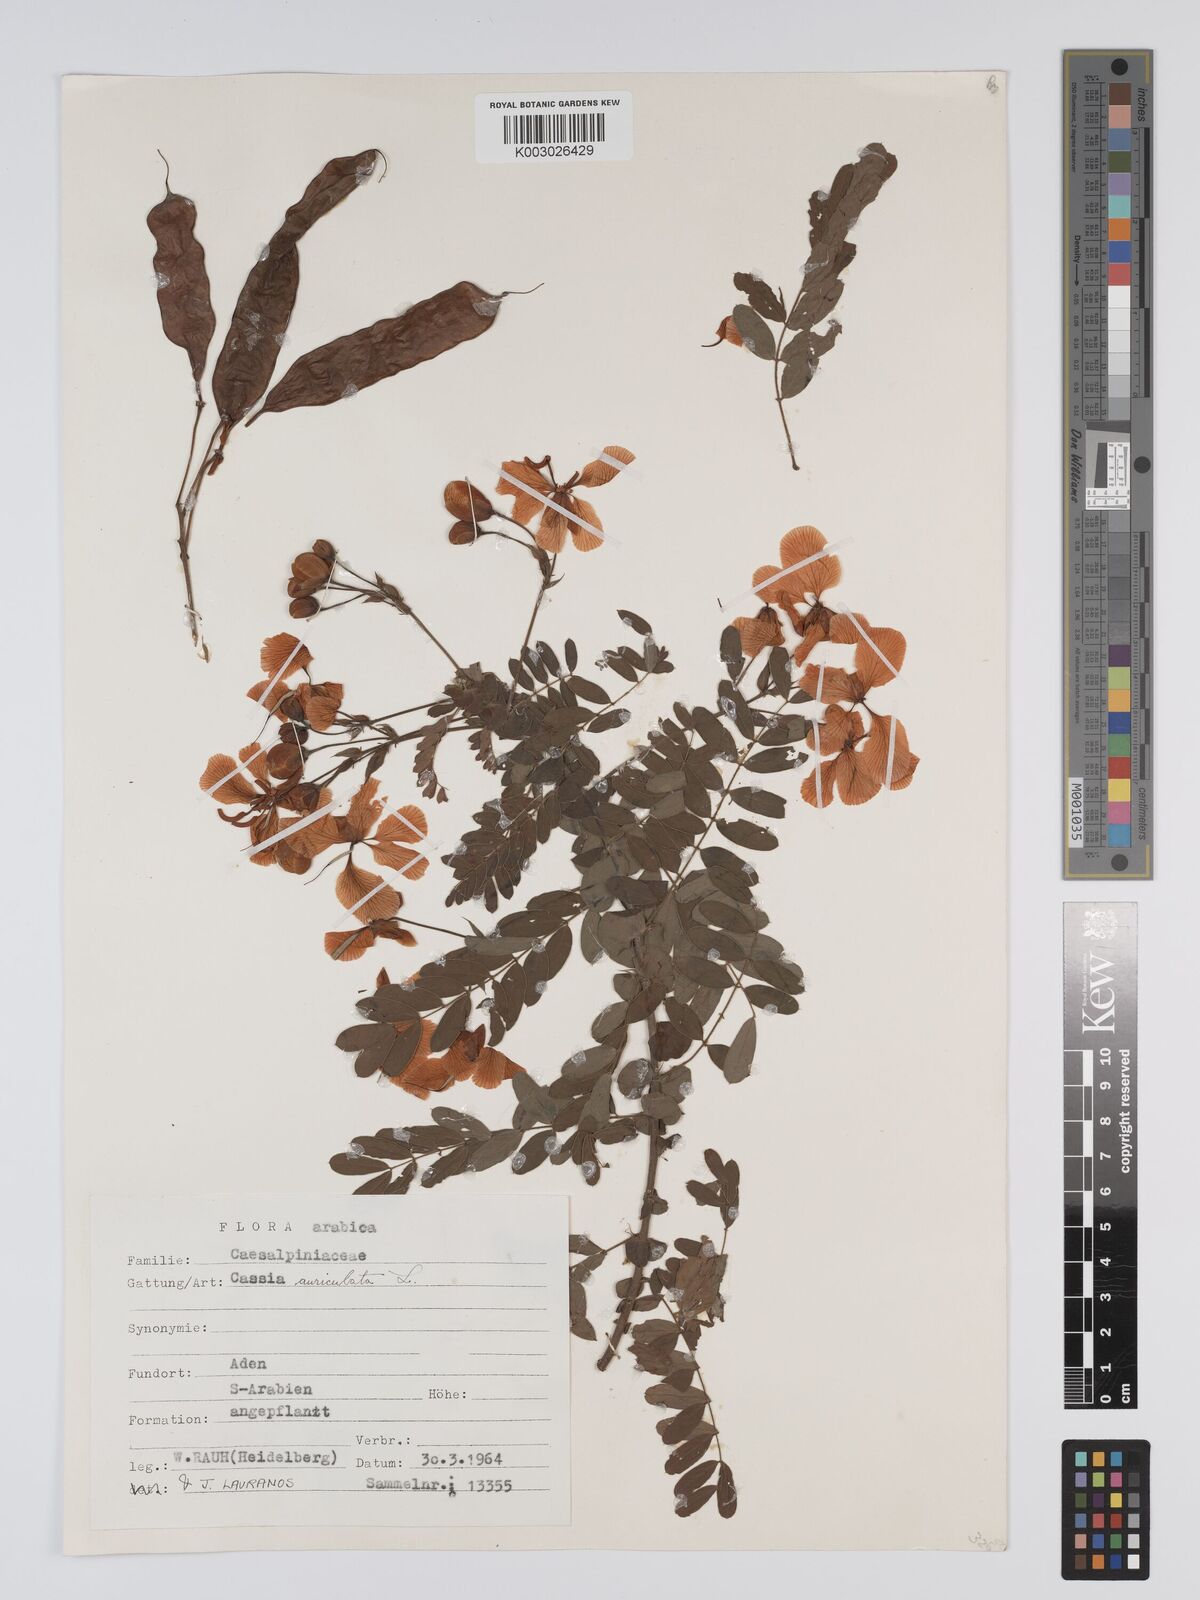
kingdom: Plantae
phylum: Tracheophyta
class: Magnoliopsida
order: Fabales
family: Fabaceae
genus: Senna
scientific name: Senna auriculata
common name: Tanner's cassia
